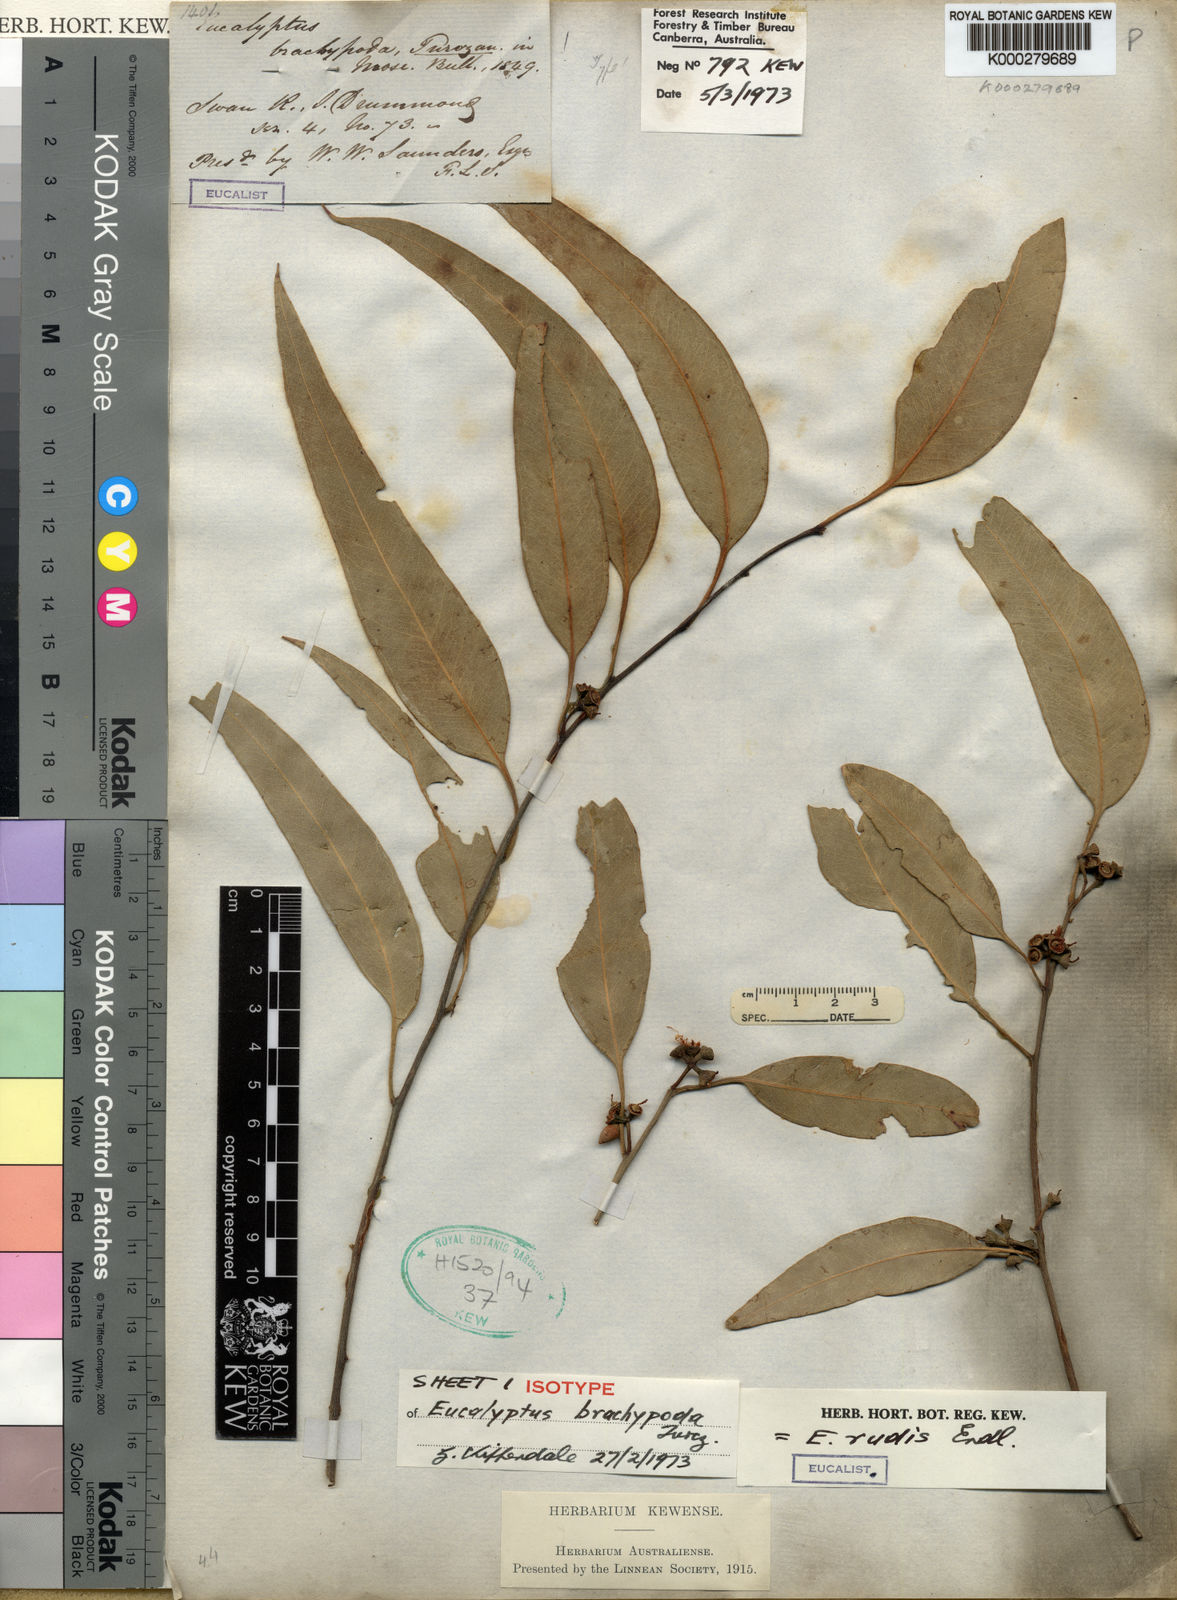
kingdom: Plantae
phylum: Tracheophyta
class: Magnoliopsida
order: Myrtales
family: Myrtaceae
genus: Eucalyptus
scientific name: Eucalyptus rudis
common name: Flooded gum
